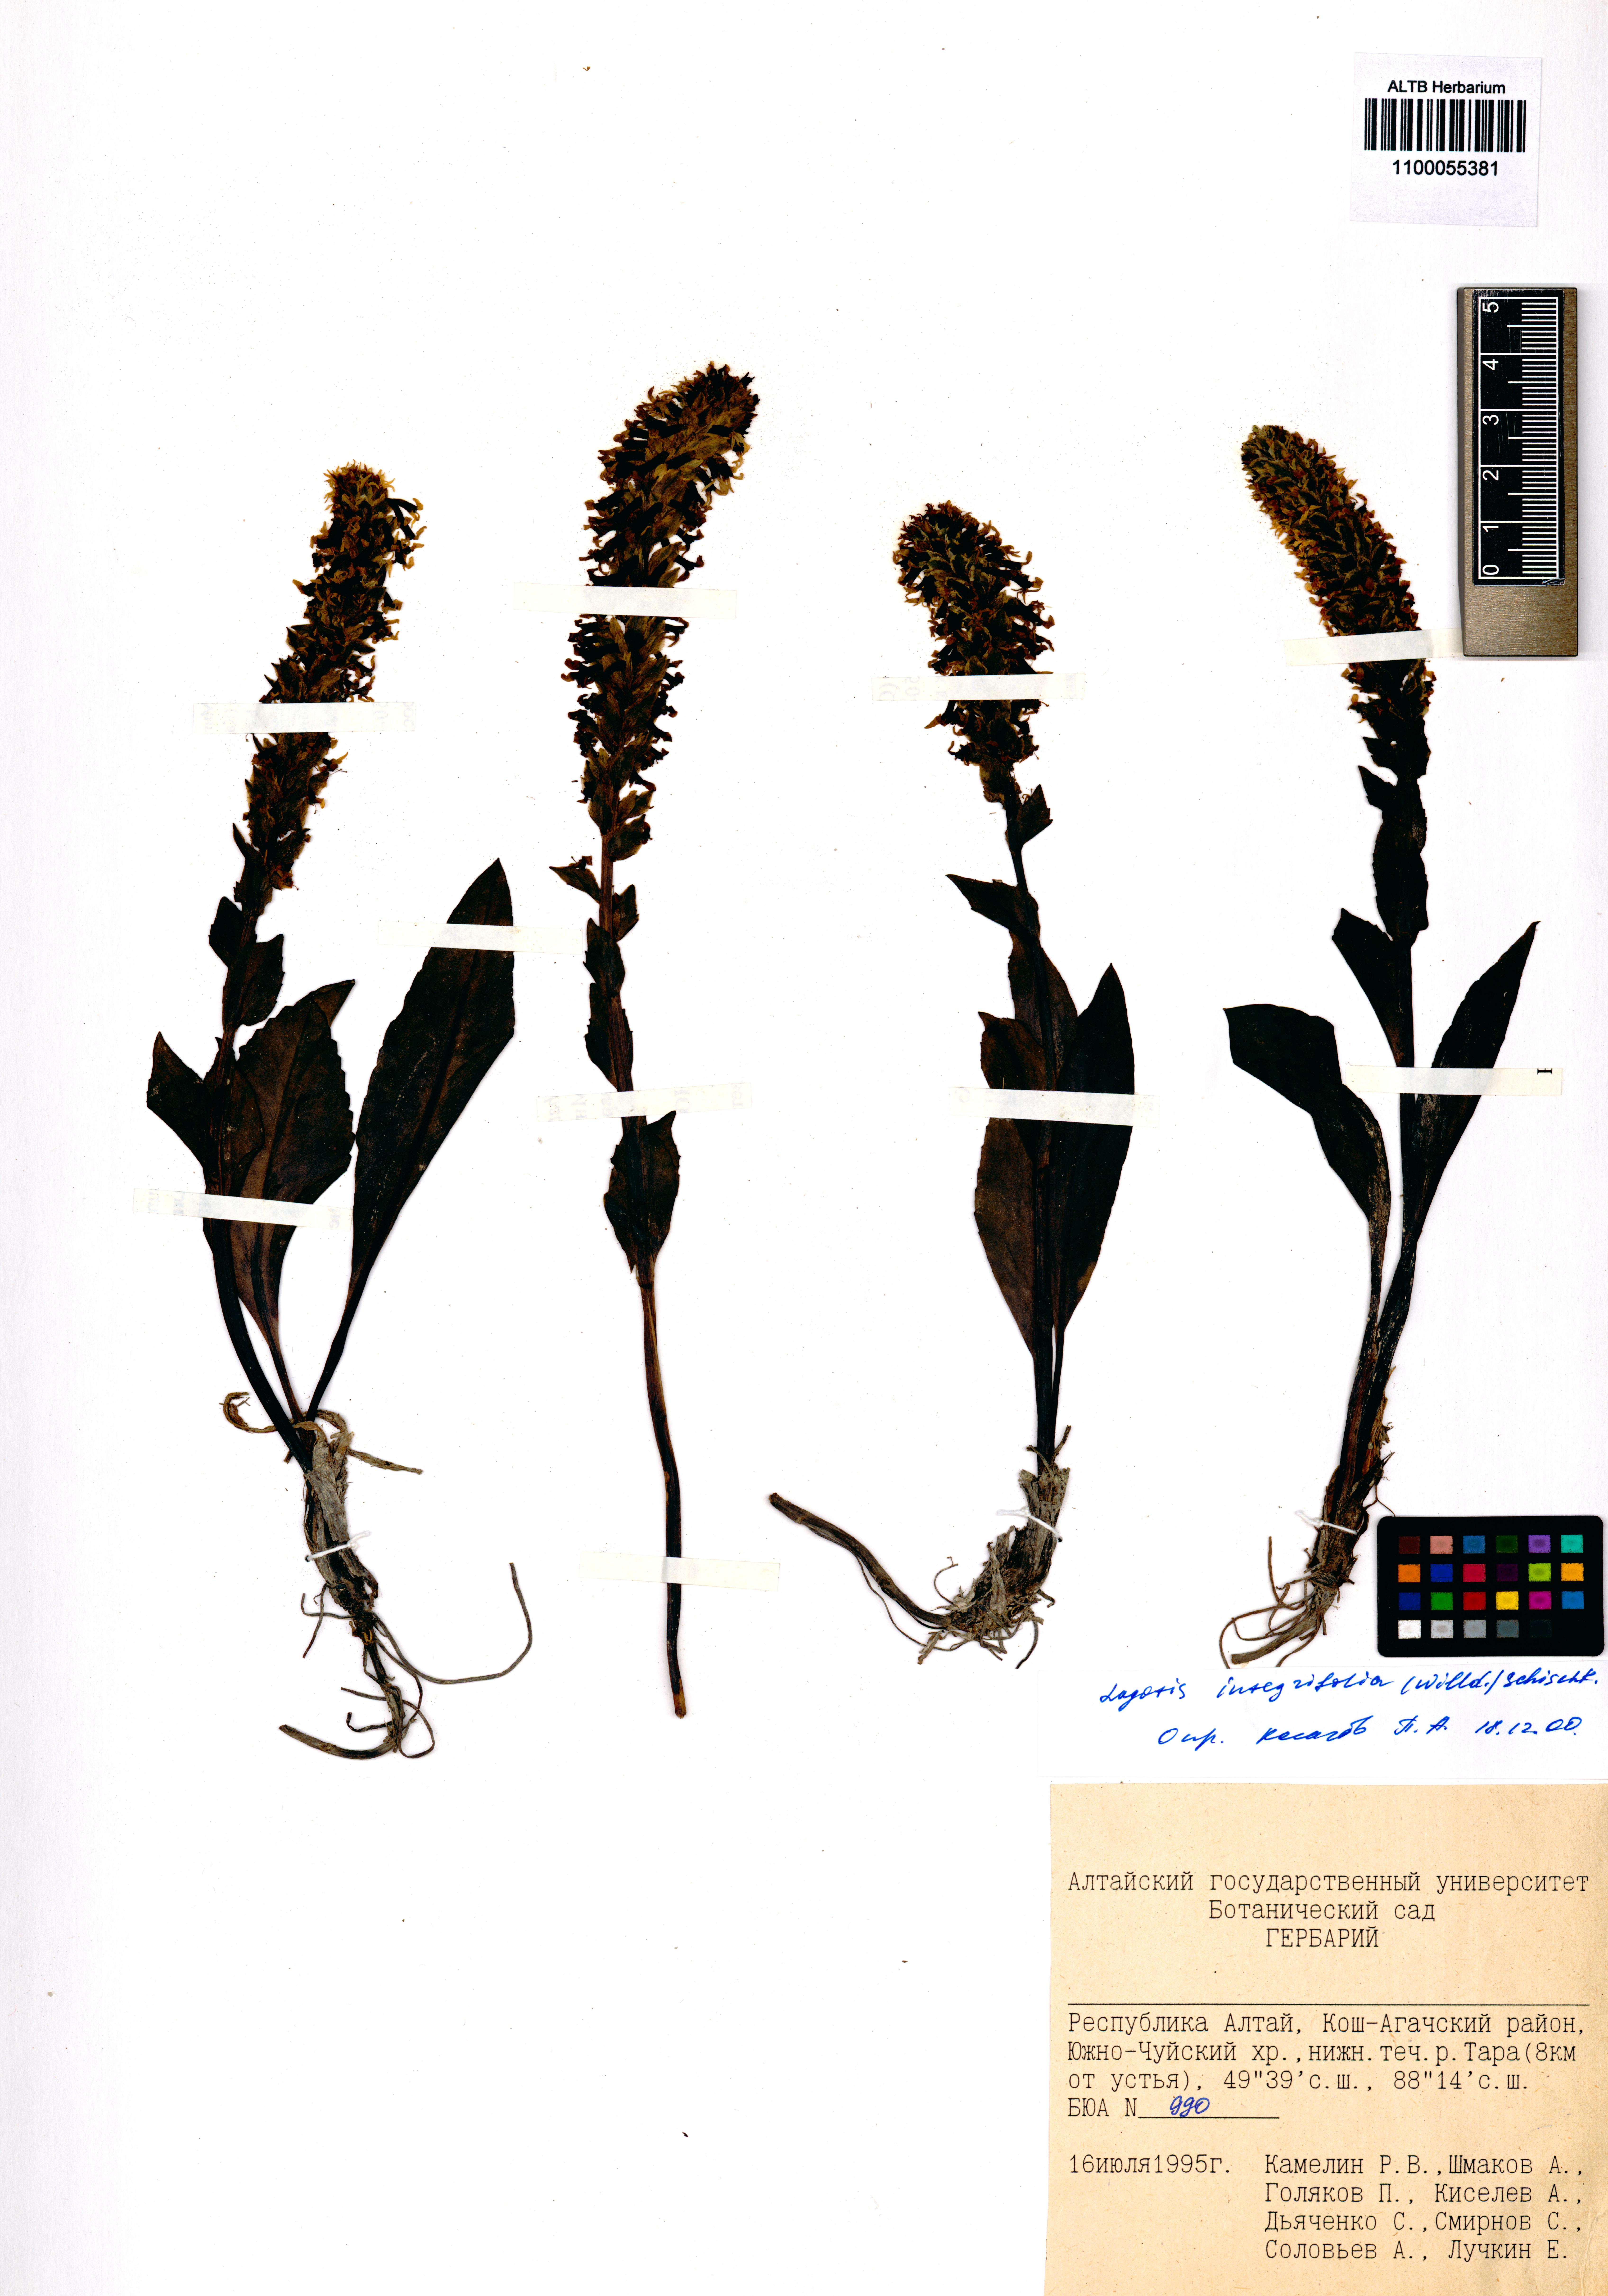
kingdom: Plantae
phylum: Tracheophyta
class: Magnoliopsida
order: Lamiales
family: Plantaginaceae
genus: Lagotis
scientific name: Lagotis integrifolia
